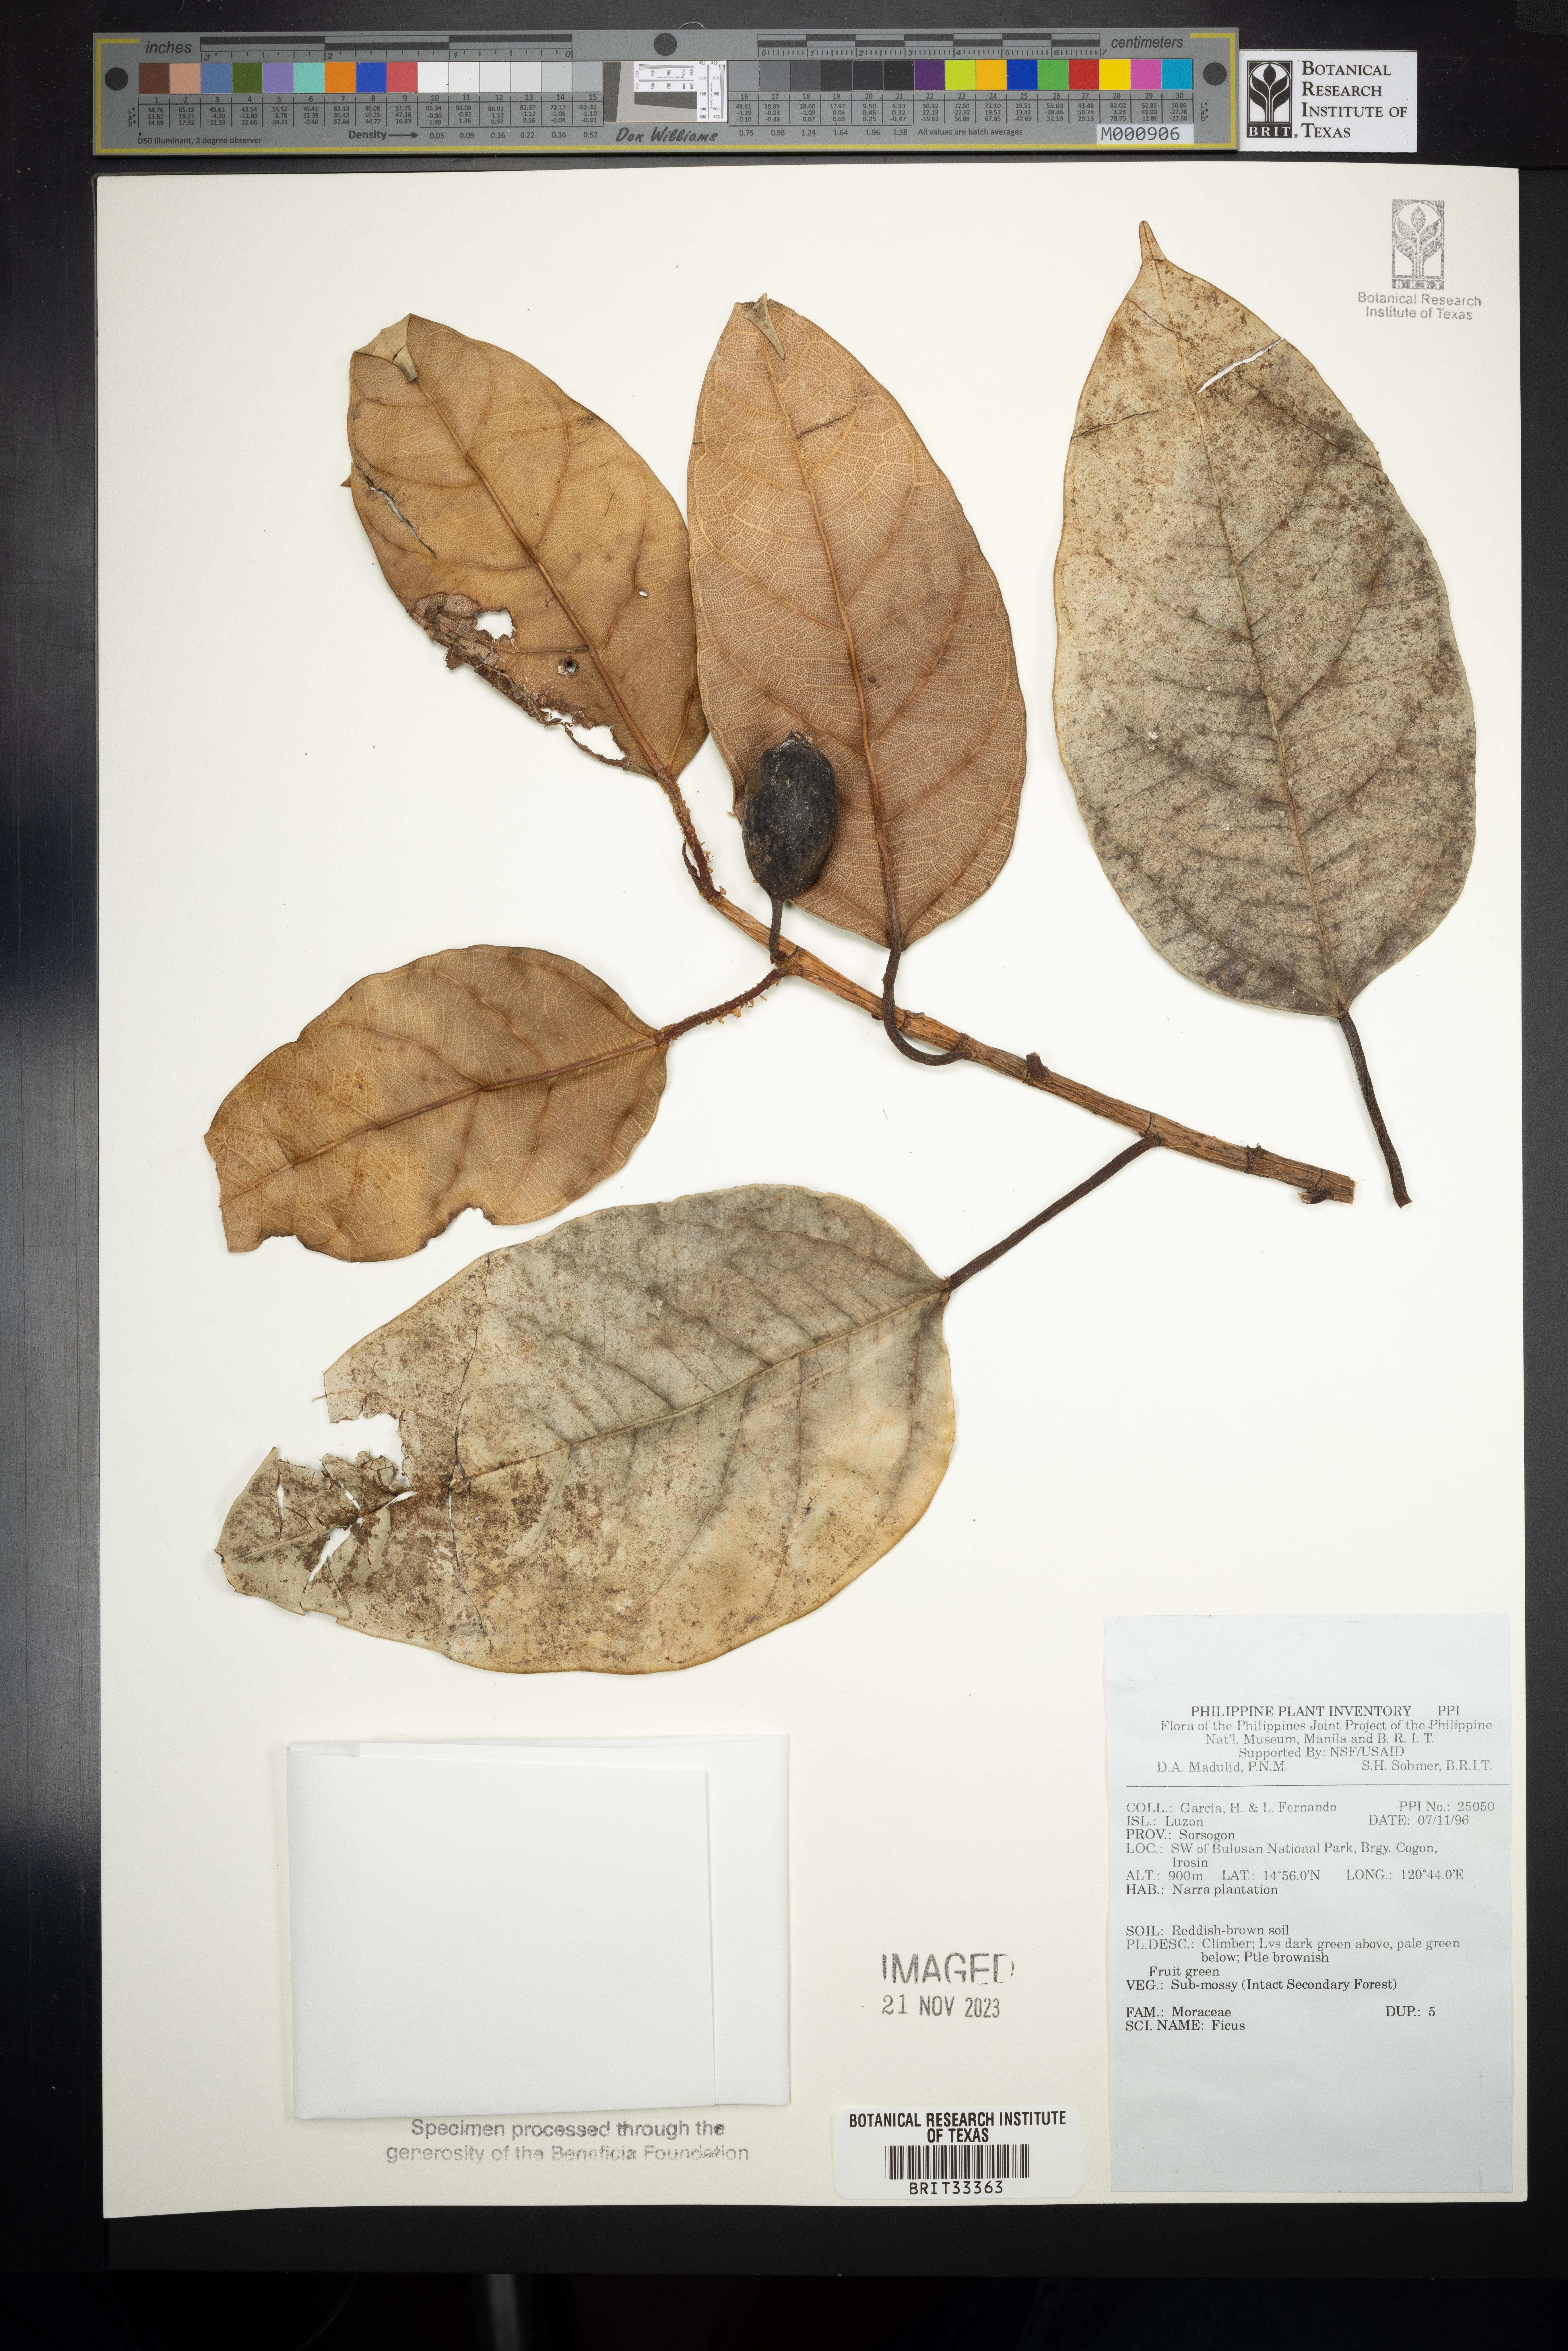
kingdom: Plantae
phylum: Tracheophyta
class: Magnoliopsida
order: Rosales
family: Moraceae
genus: Ficus
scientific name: Ficus
